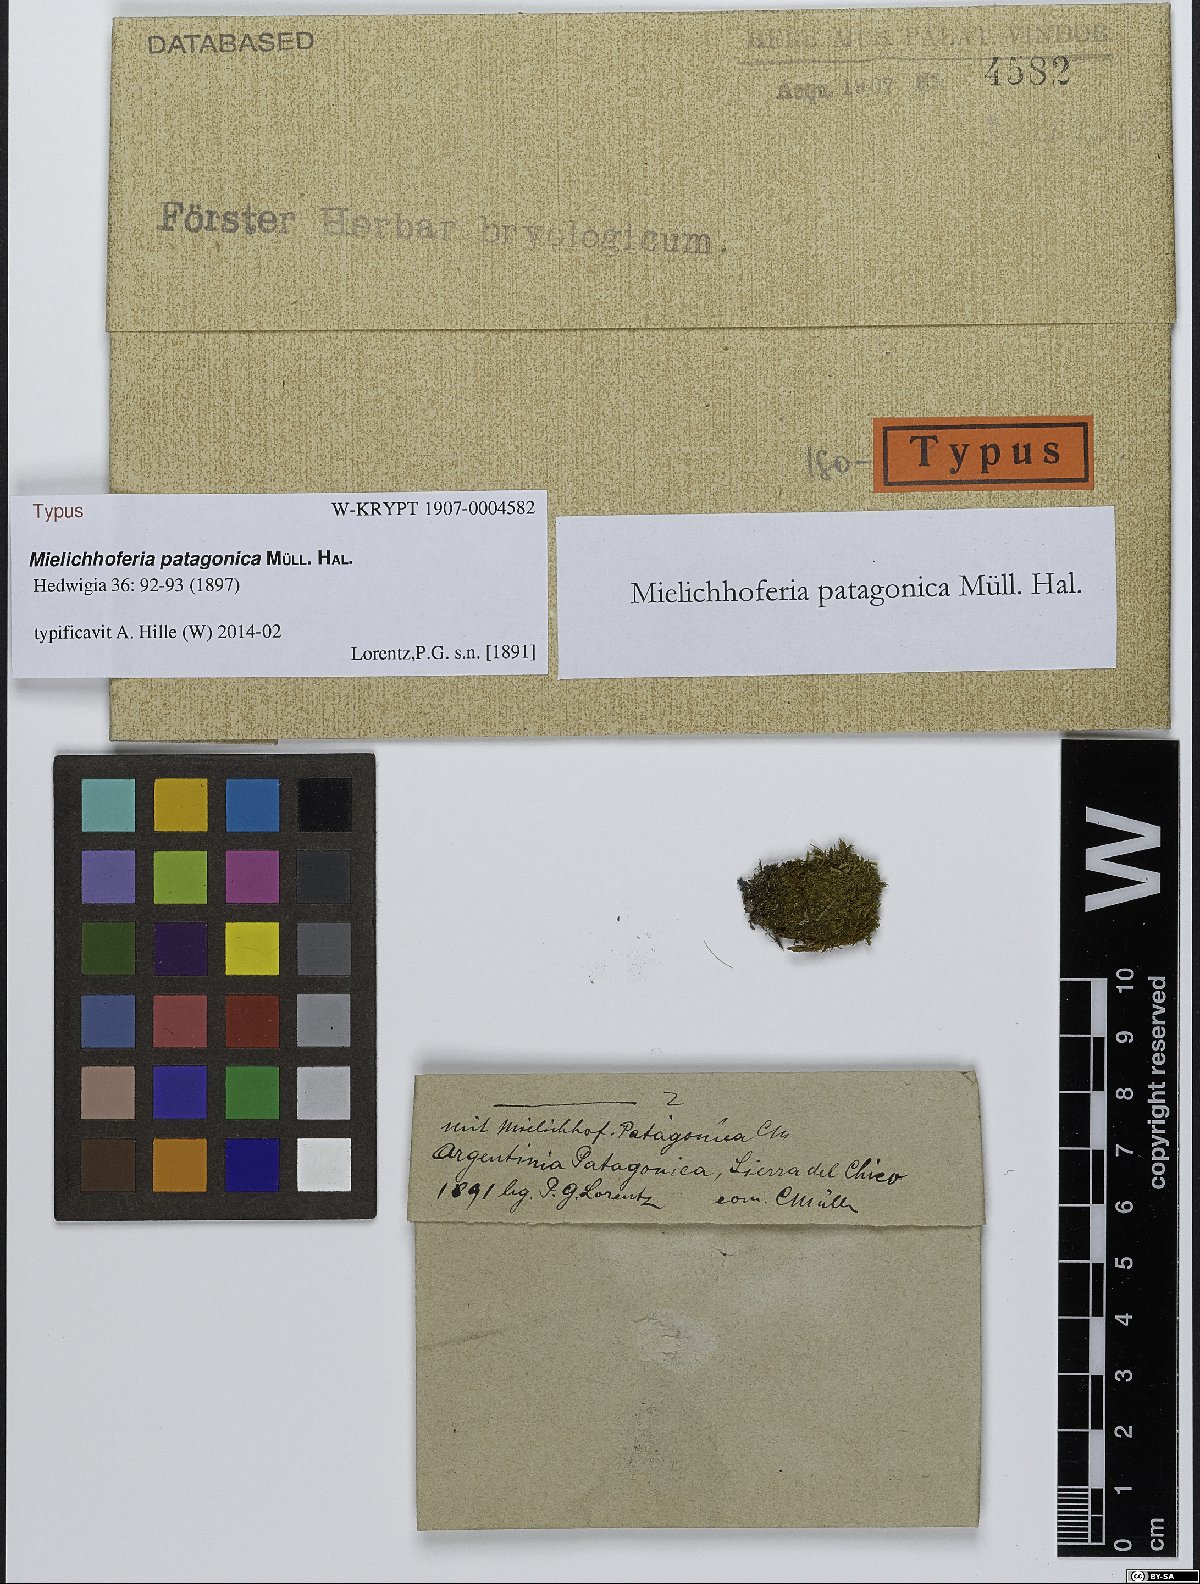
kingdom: Plantae
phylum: Bryophyta
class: Bryopsida
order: Bryales
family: Mniaceae
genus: Mielichhoferia
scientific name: Mielichhoferia patagonica
